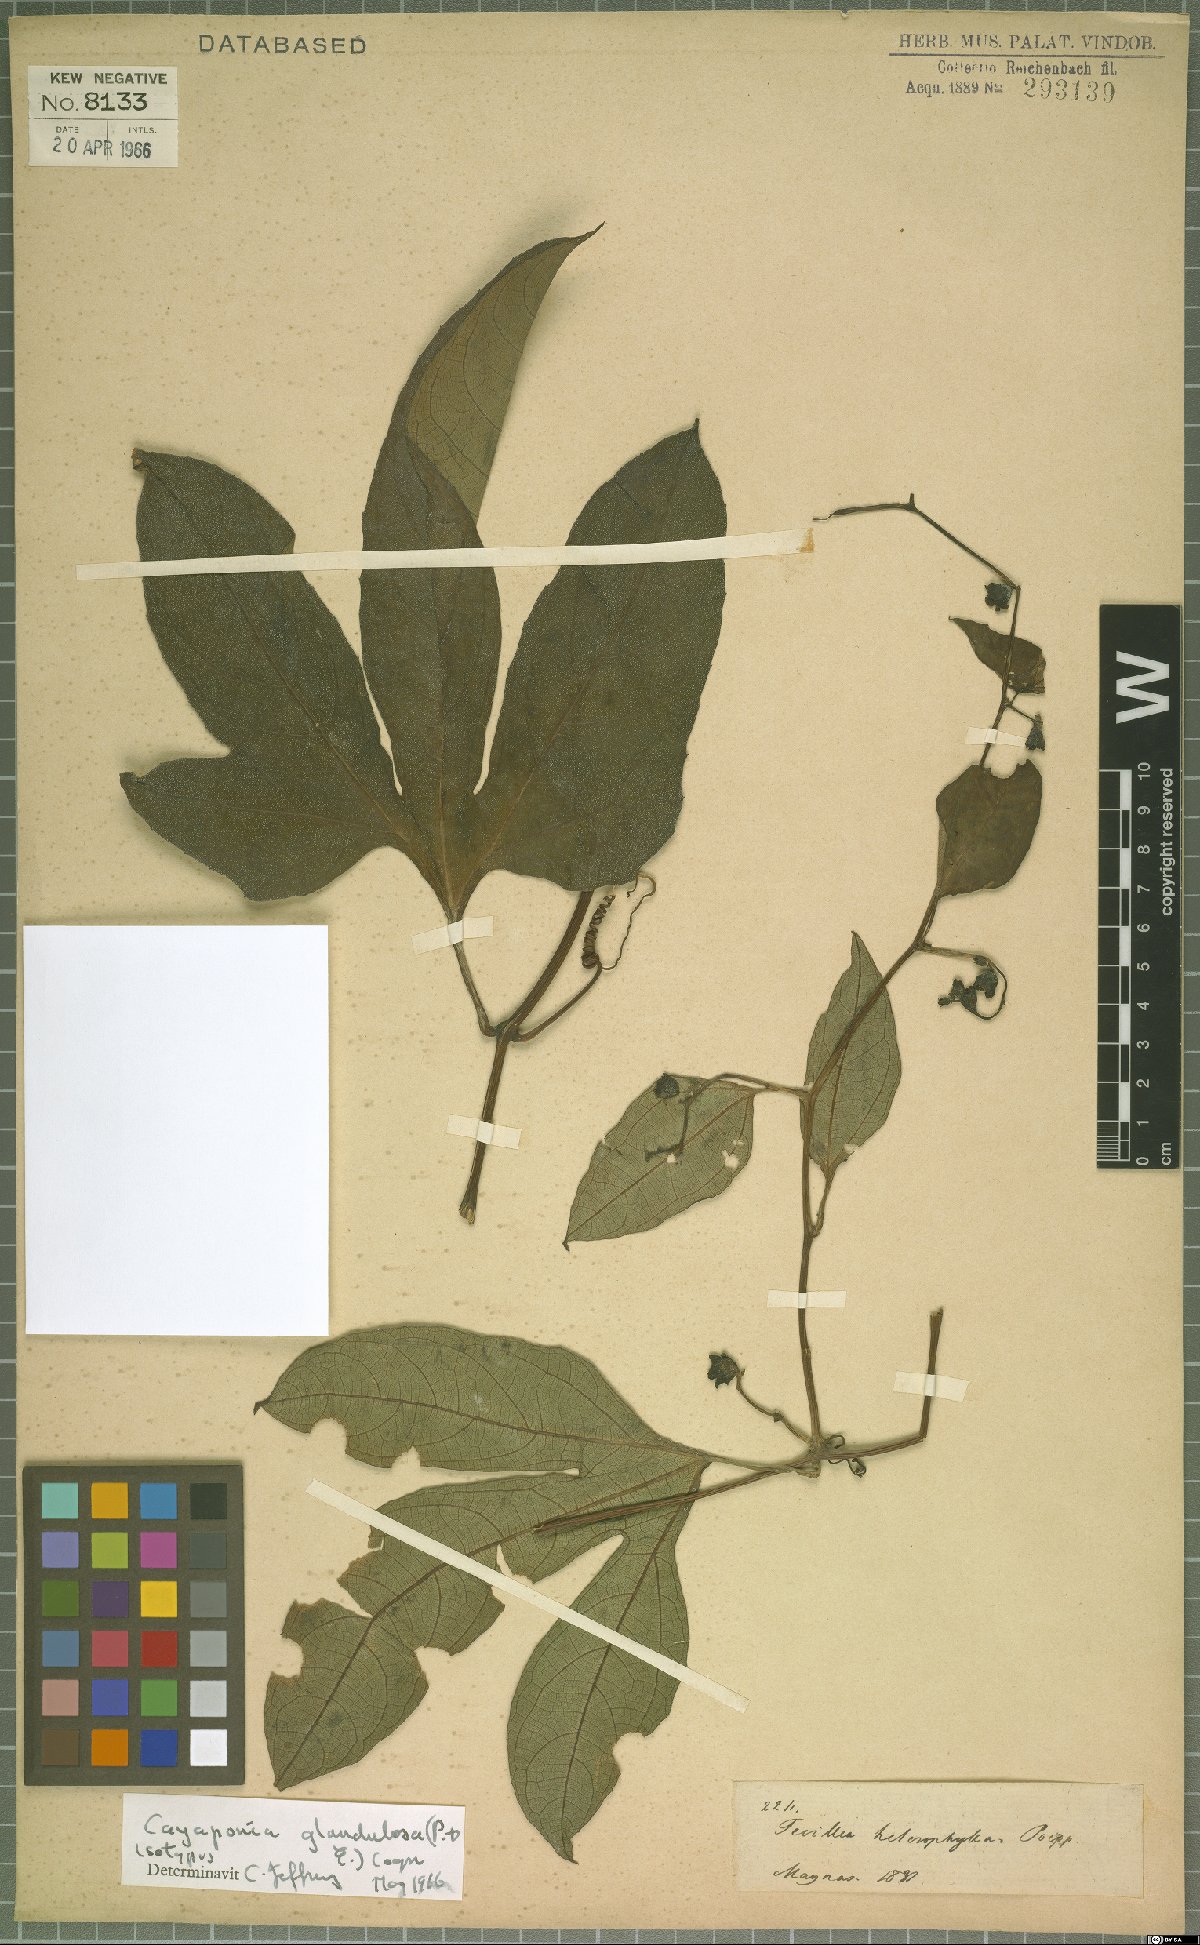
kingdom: Plantae
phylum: Tracheophyta
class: Magnoliopsida
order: Cucurbitales
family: Cucurbitaceae
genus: Cayaponia
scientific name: Cayaponia glandulosa
